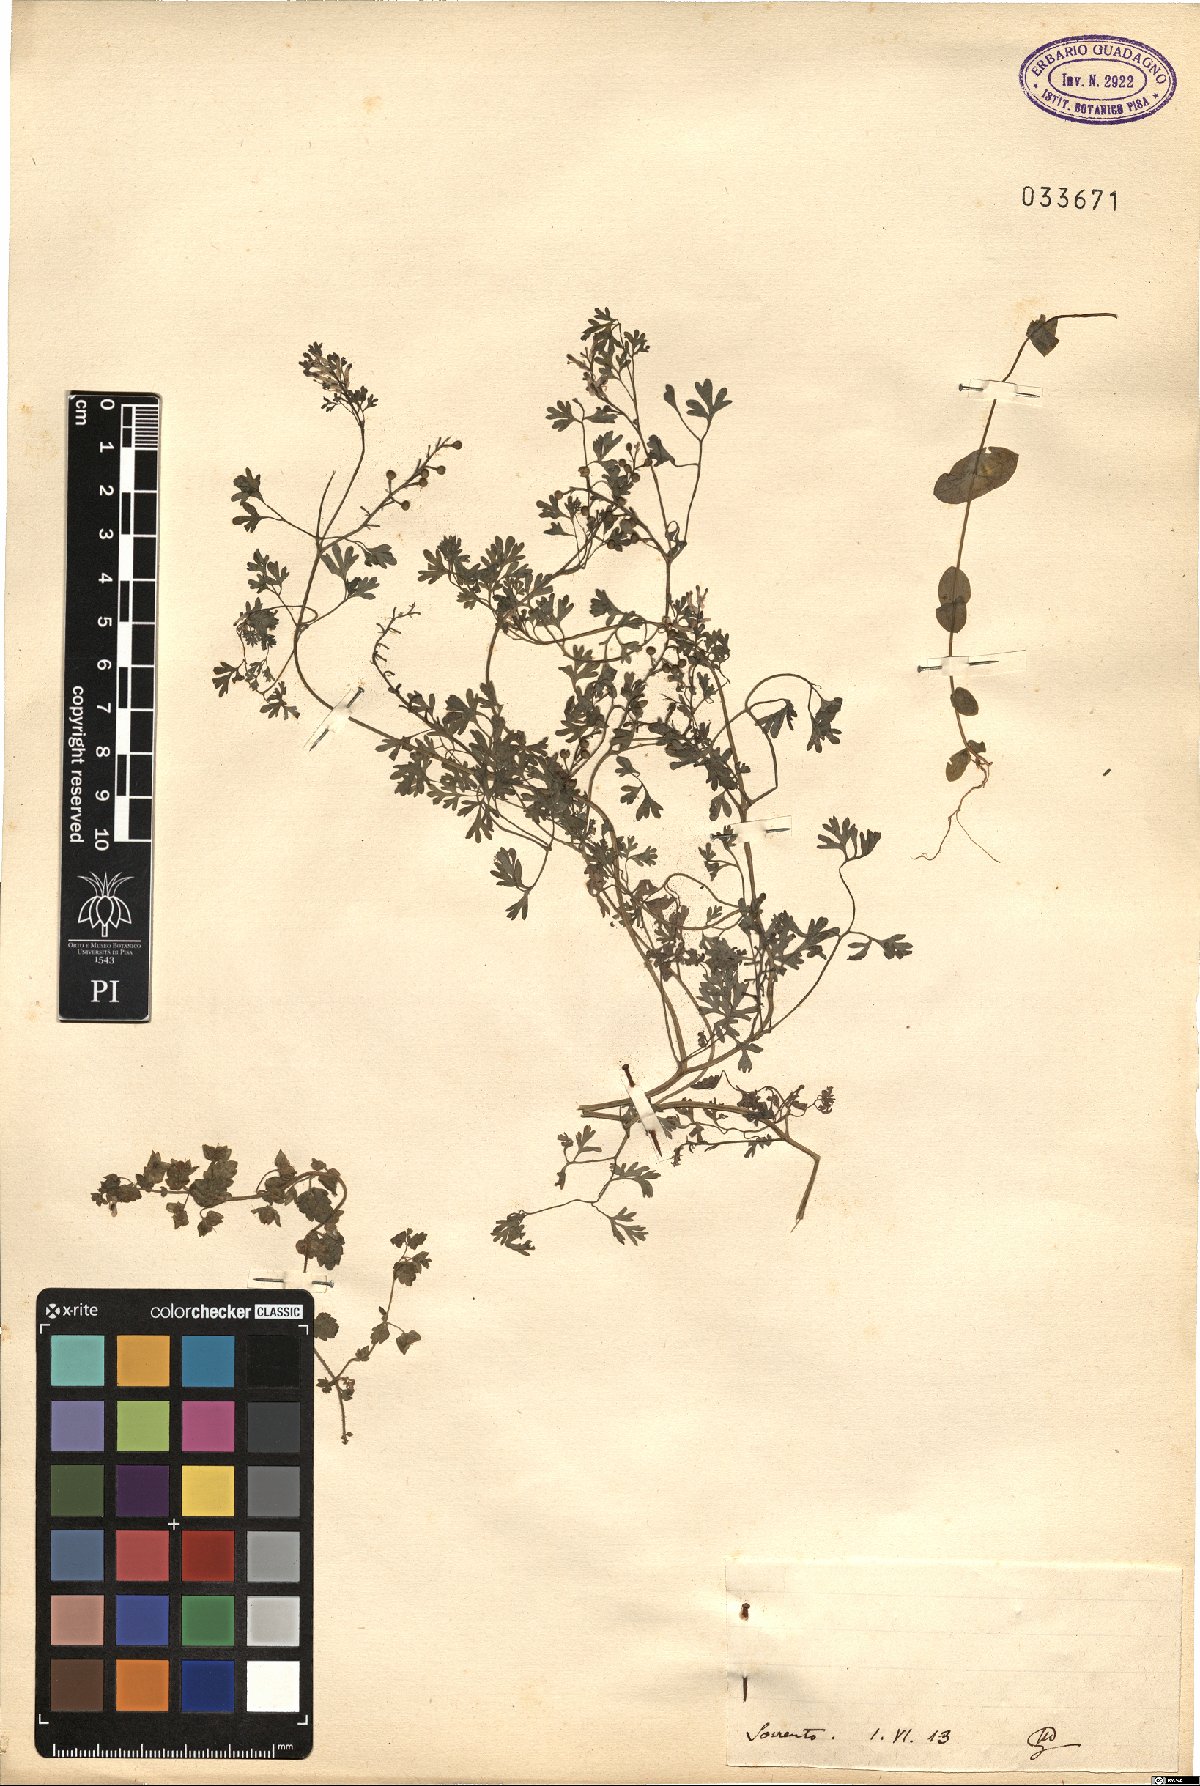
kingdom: Plantae
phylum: Tracheophyta
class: Magnoliopsida
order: Ranunculales
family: Papaveraceae
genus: Fumaria
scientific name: Fumaria
